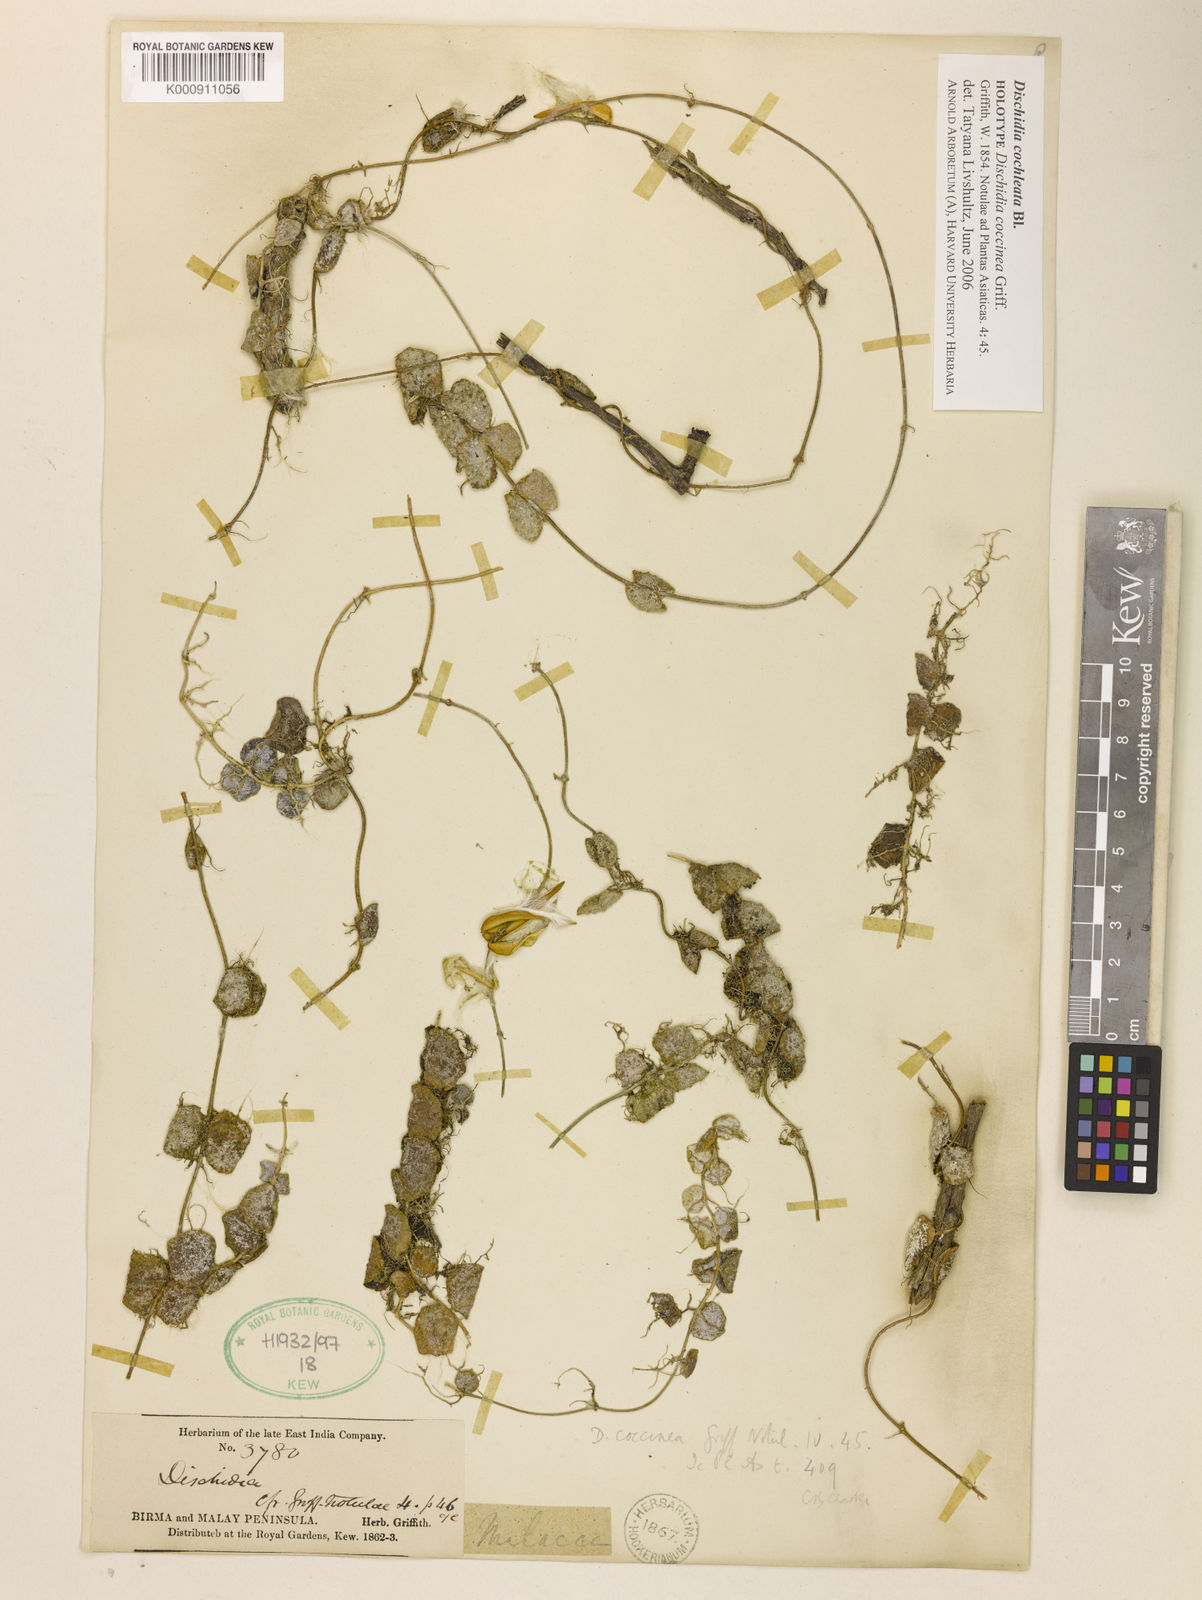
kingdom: Plantae
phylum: Tracheophyta
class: Magnoliopsida
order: Gentianales
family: Apocynaceae
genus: Dischidia
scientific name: Dischidia cochleata
